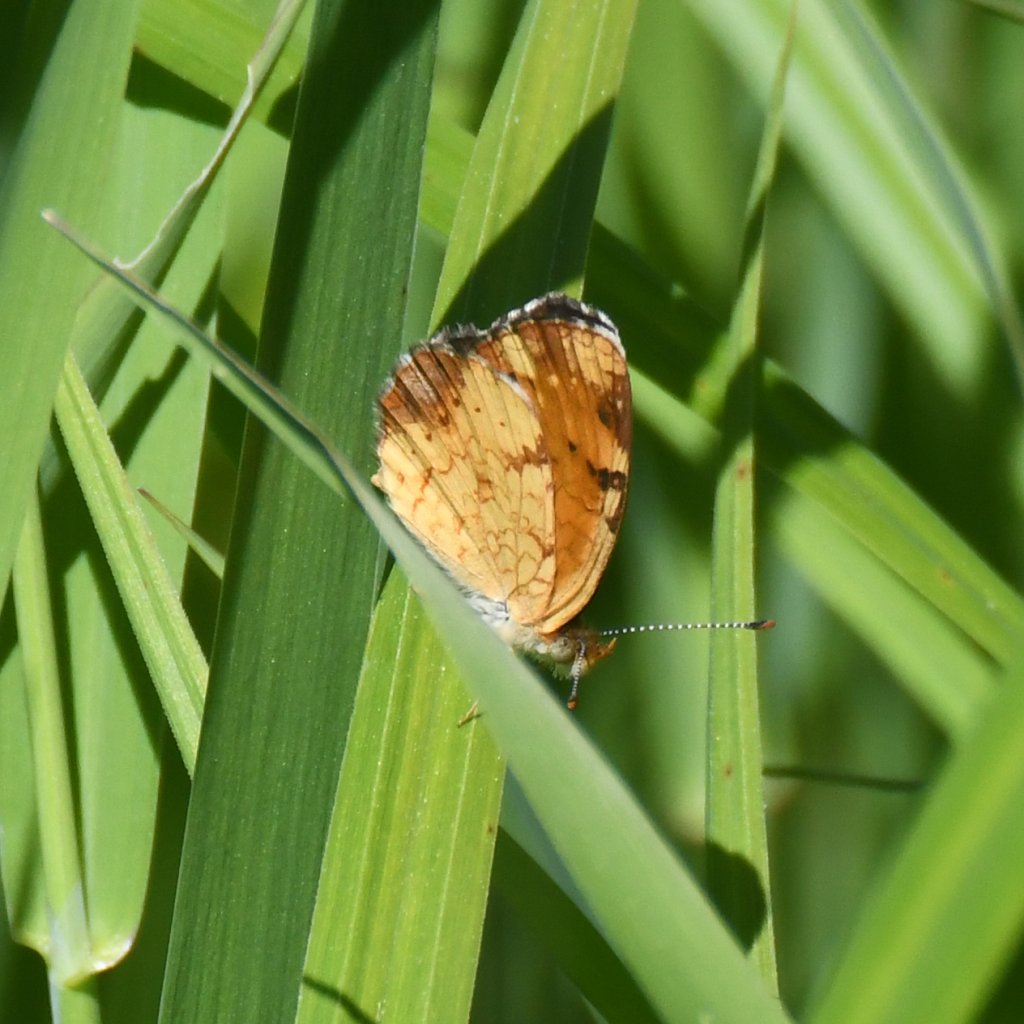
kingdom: Animalia
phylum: Arthropoda
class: Insecta
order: Lepidoptera
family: Nymphalidae
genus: Phyciodes
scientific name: Phyciodes tharos
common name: Northern Crescent
